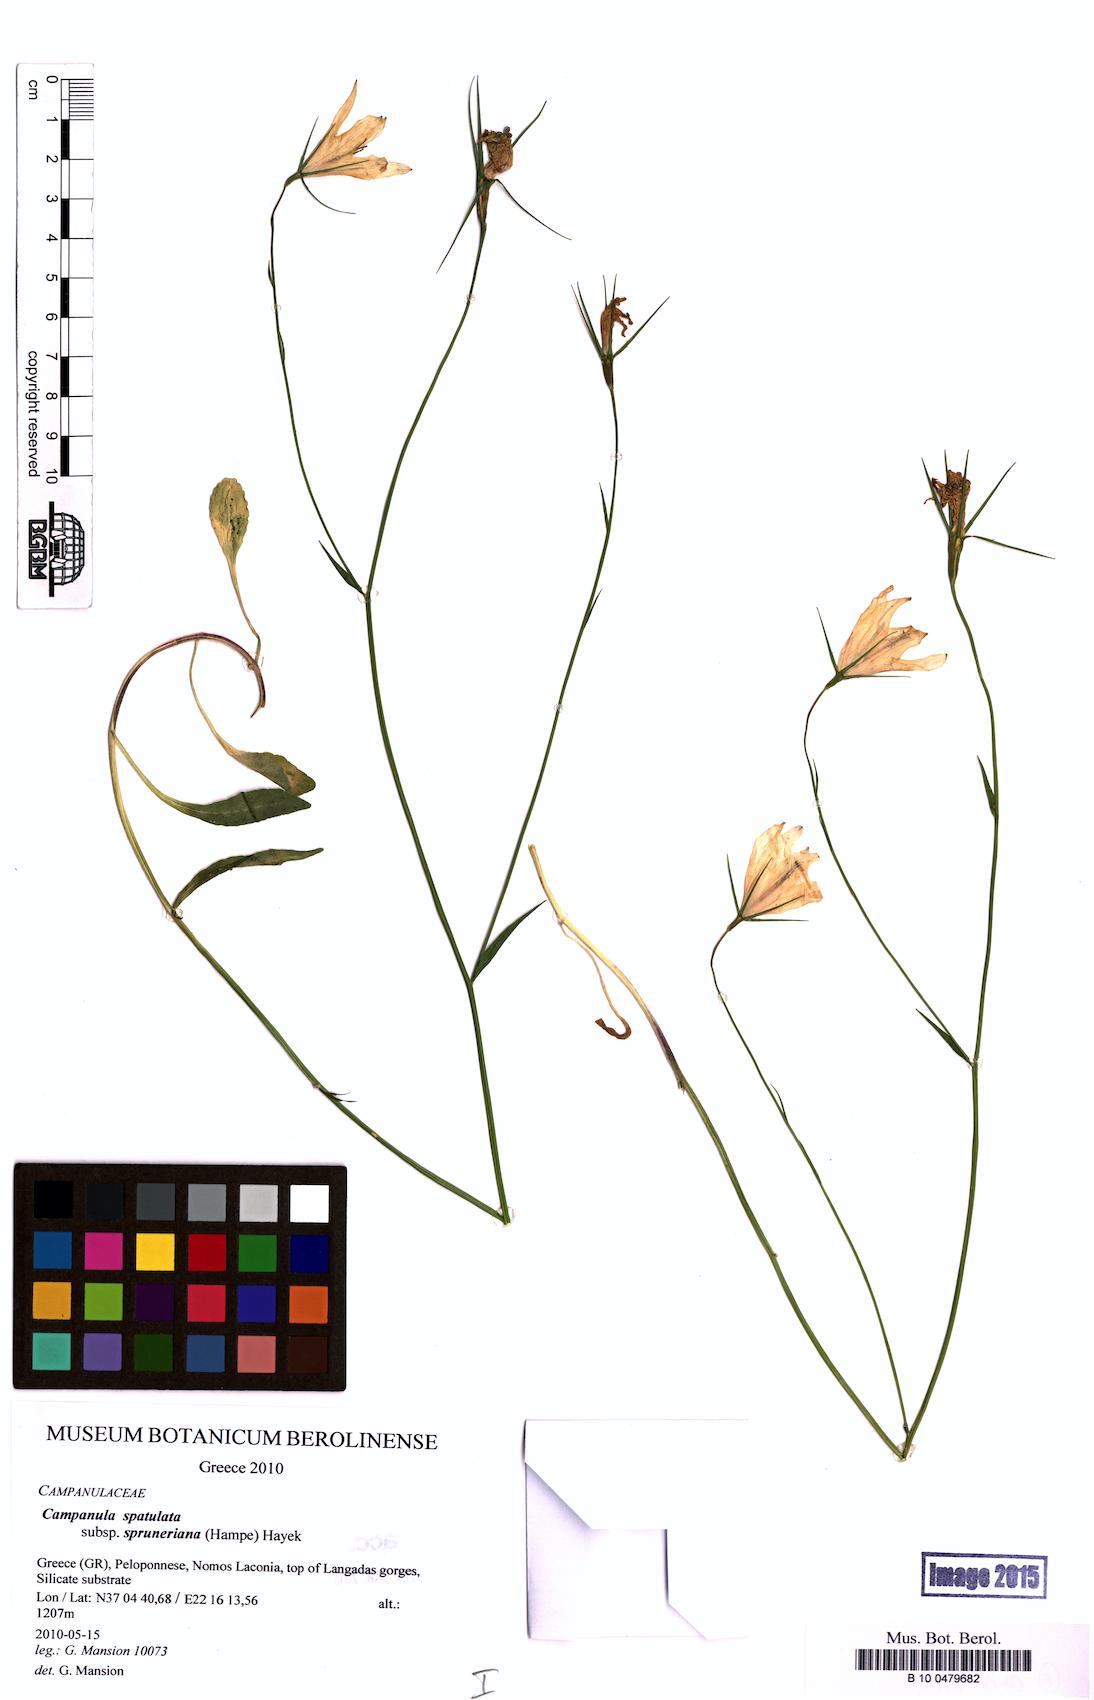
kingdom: Plantae
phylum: Tracheophyta
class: Magnoliopsida
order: Asterales
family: Campanulaceae
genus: Campanula
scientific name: Campanula spatulata
